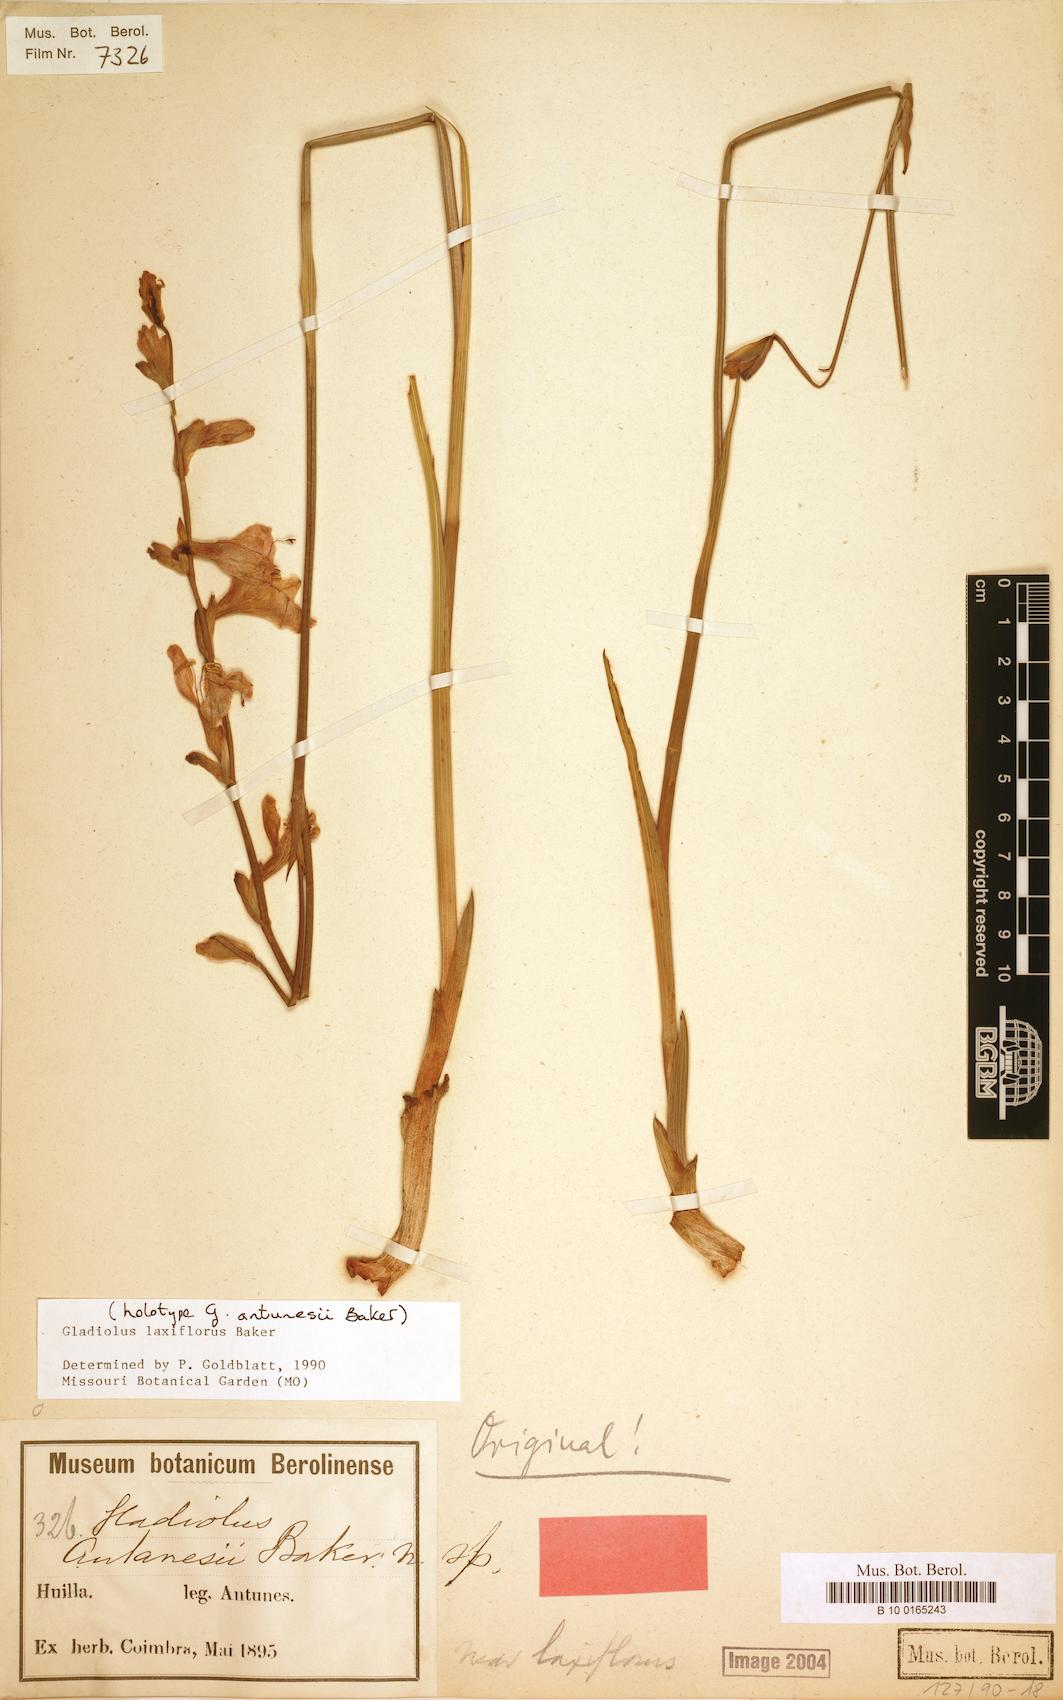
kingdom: Plantae
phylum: Tracheophyta
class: Liliopsida
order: Asparagales
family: Iridaceae
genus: Gladiolus
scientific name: Gladiolus laxiflorus
